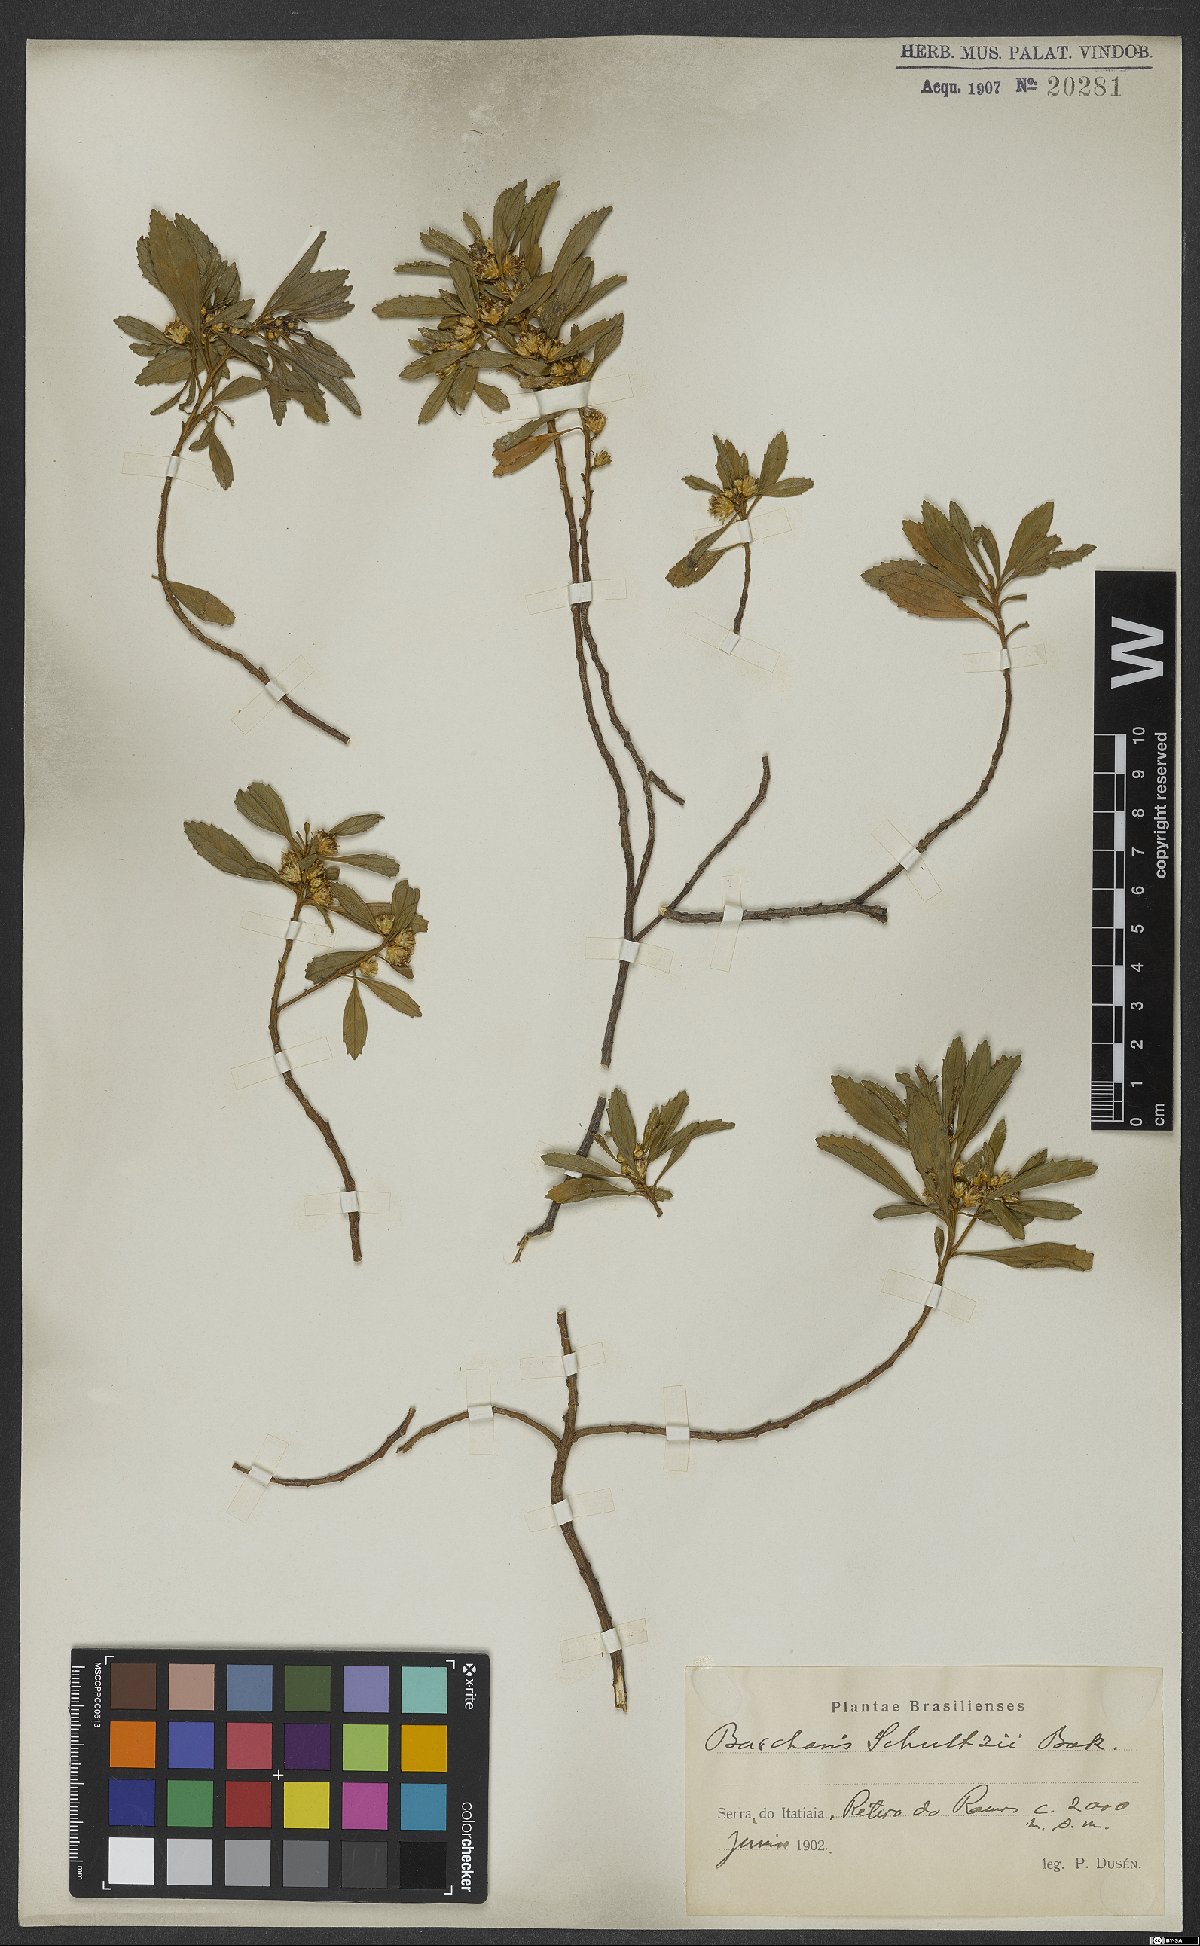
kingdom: Plantae
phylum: Tracheophyta
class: Magnoliopsida
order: Asterales
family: Asteraceae
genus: Baccharis
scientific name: Baccharis lateralis
